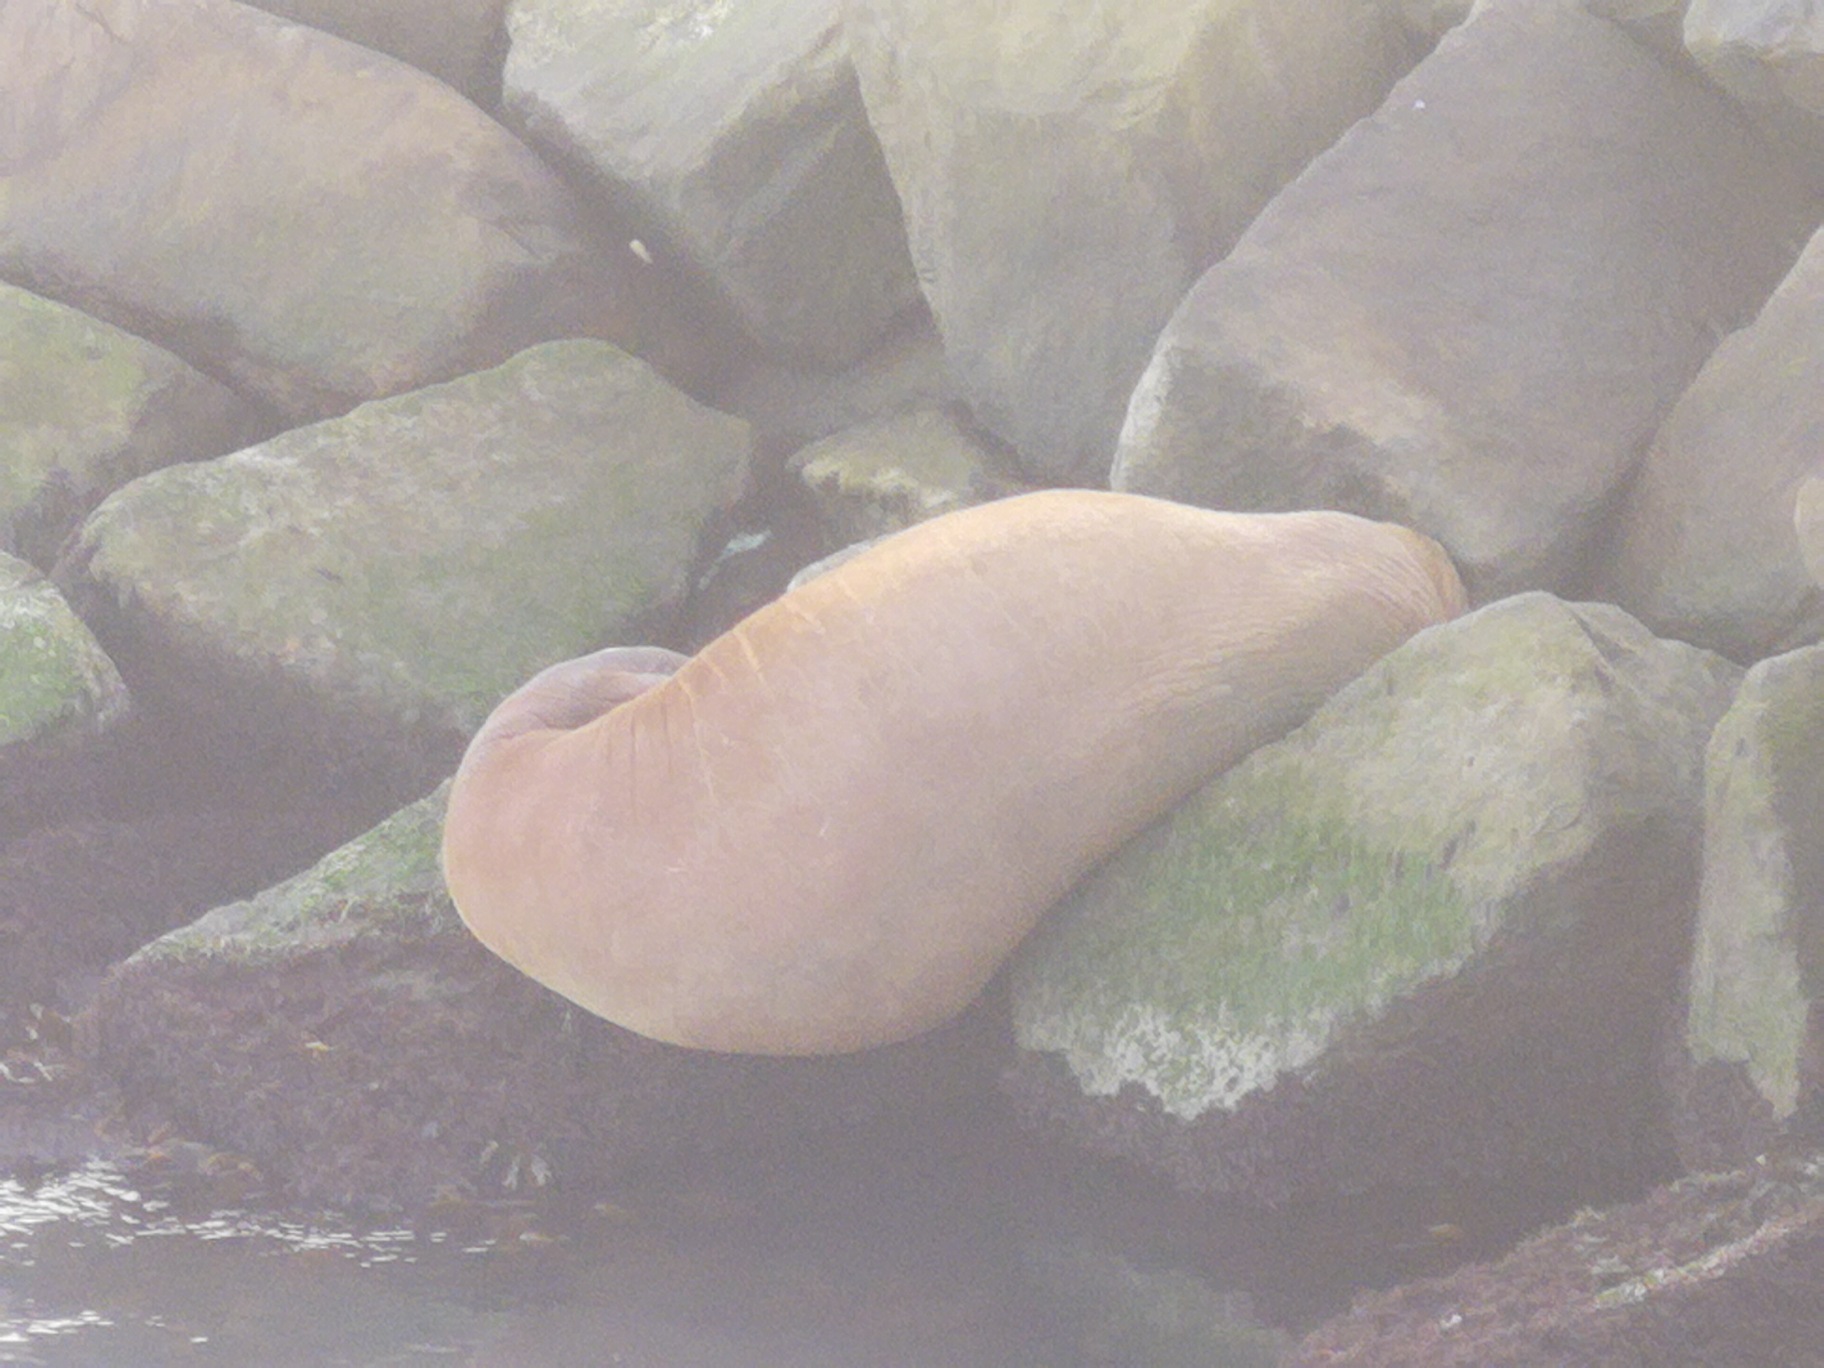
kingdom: Animalia
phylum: Chordata
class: Mammalia
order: Carnivora
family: Odobenidae
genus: Odobenus
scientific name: Odobenus rosmarus
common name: Hvalros
